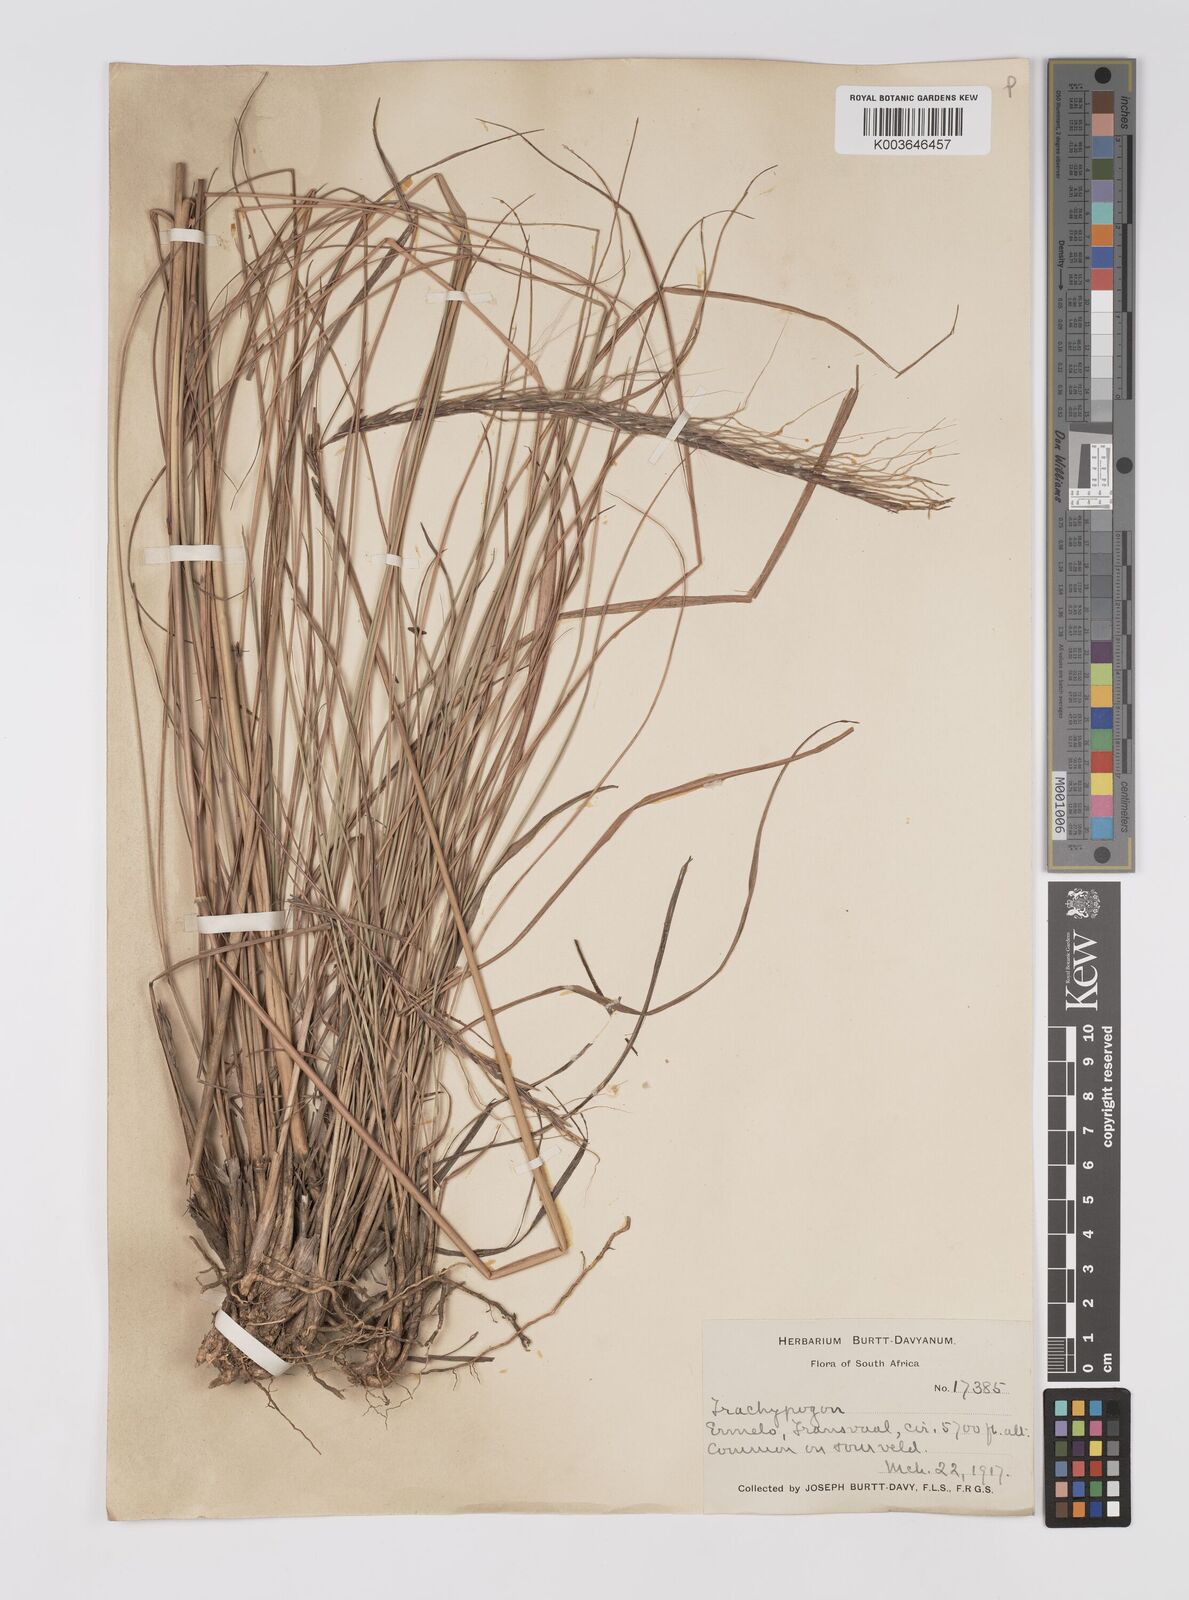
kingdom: Plantae
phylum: Tracheophyta
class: Liliopsida
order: Poales
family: Poaceae
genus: Trachypogon
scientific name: Trachypogon spicatus
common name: Crinkle-awn
